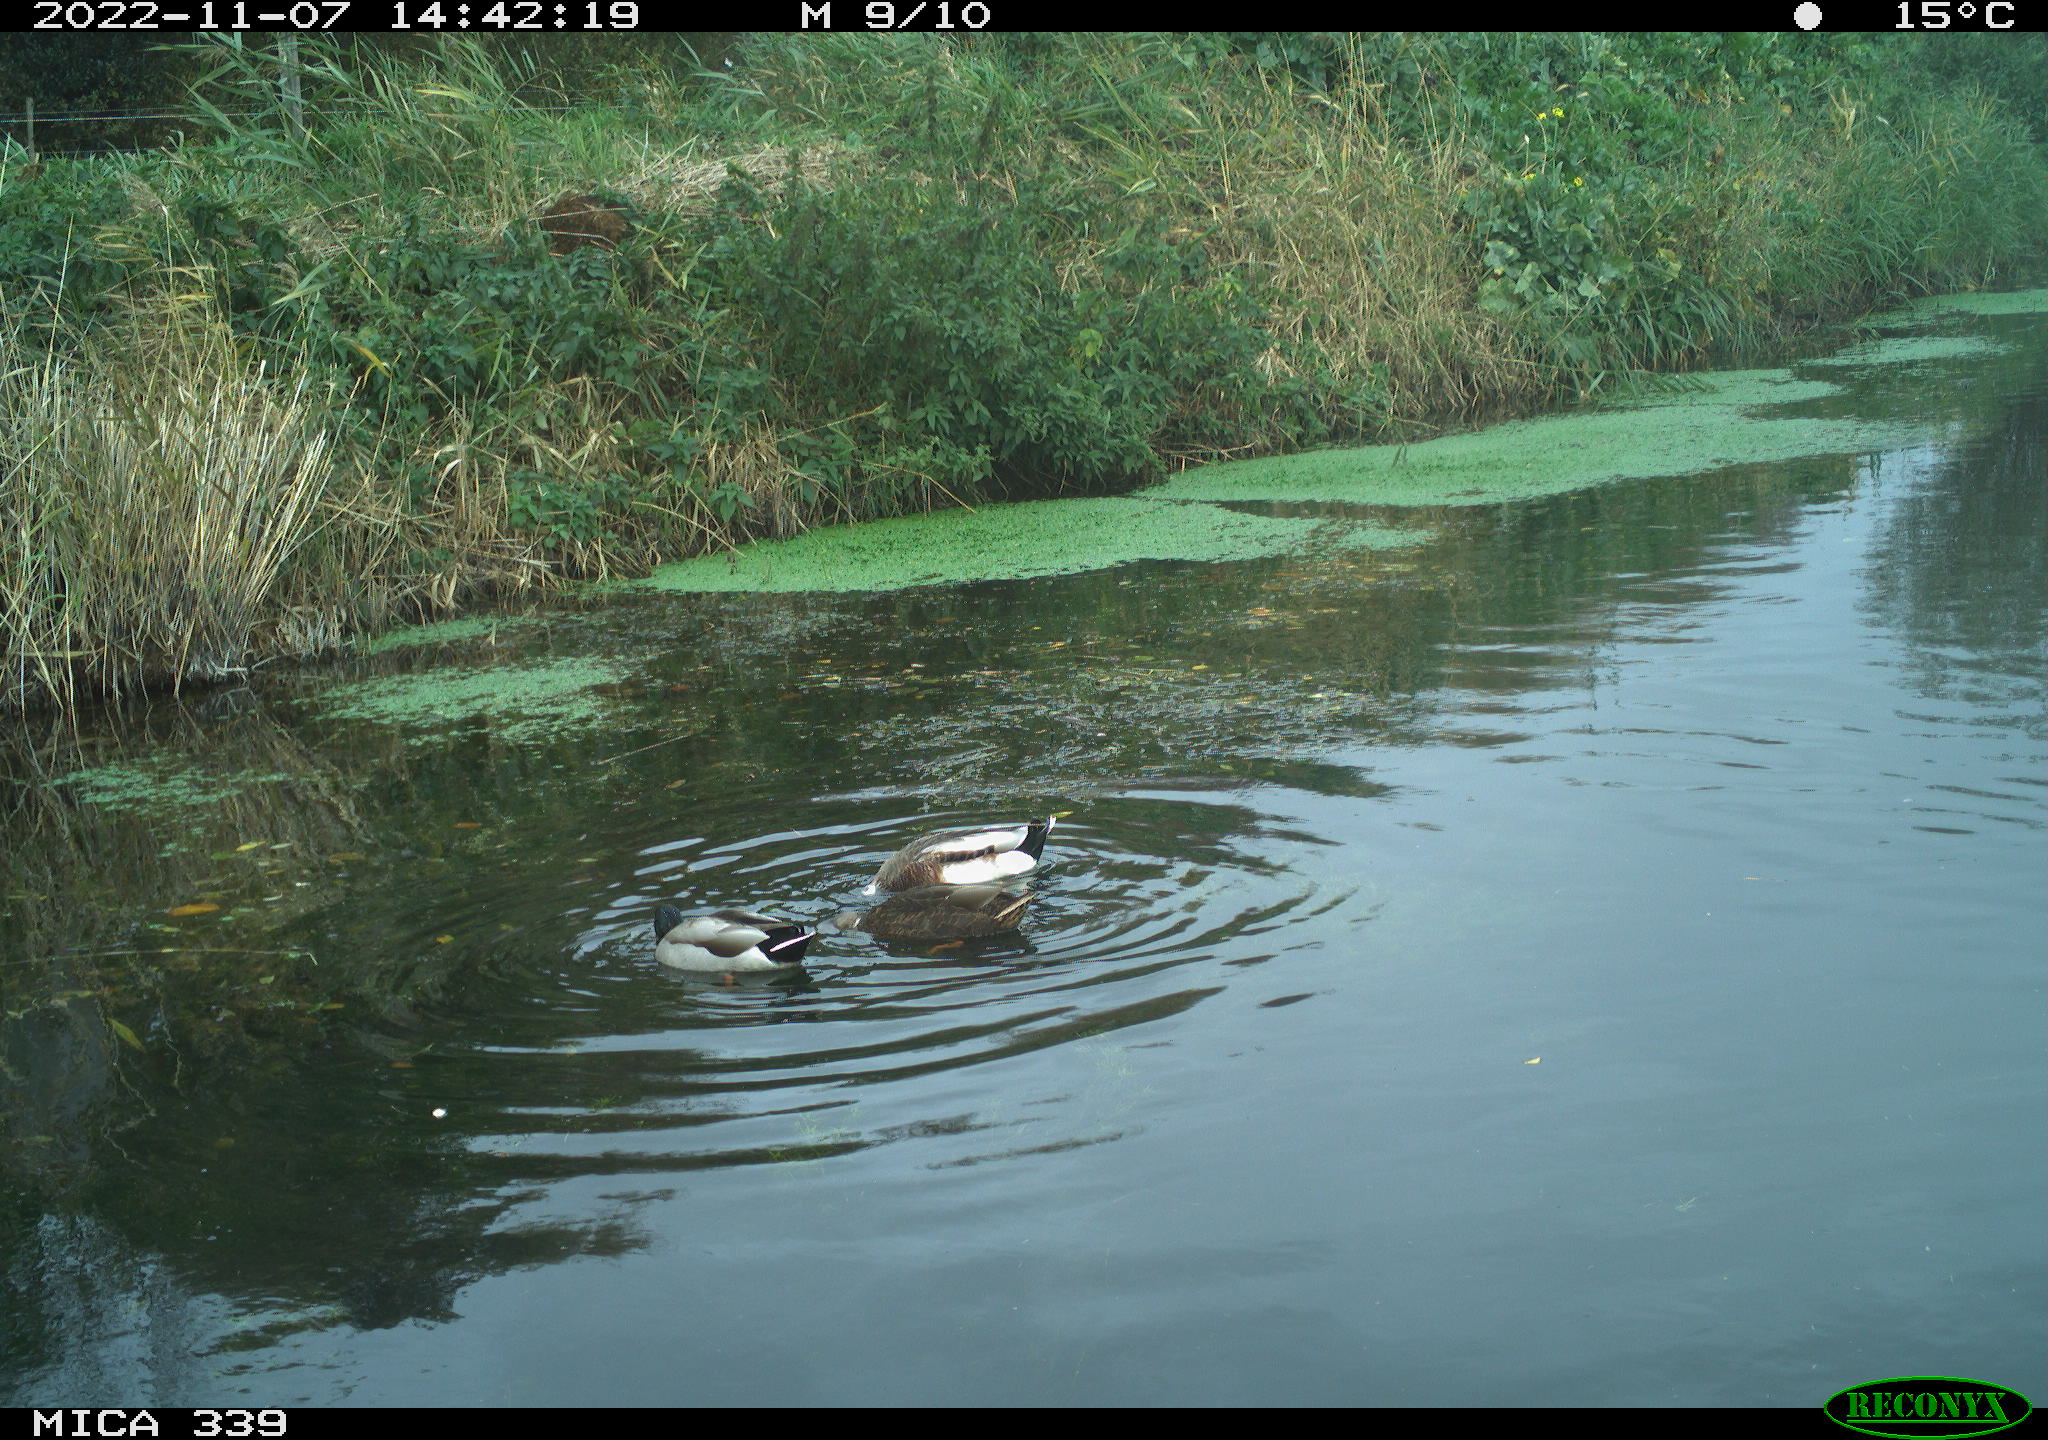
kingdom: Animalia
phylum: Chordata
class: Aves
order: Anseriformes
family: Anatidae
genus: Anas
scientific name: Anas platyrhynchos
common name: Mallard
